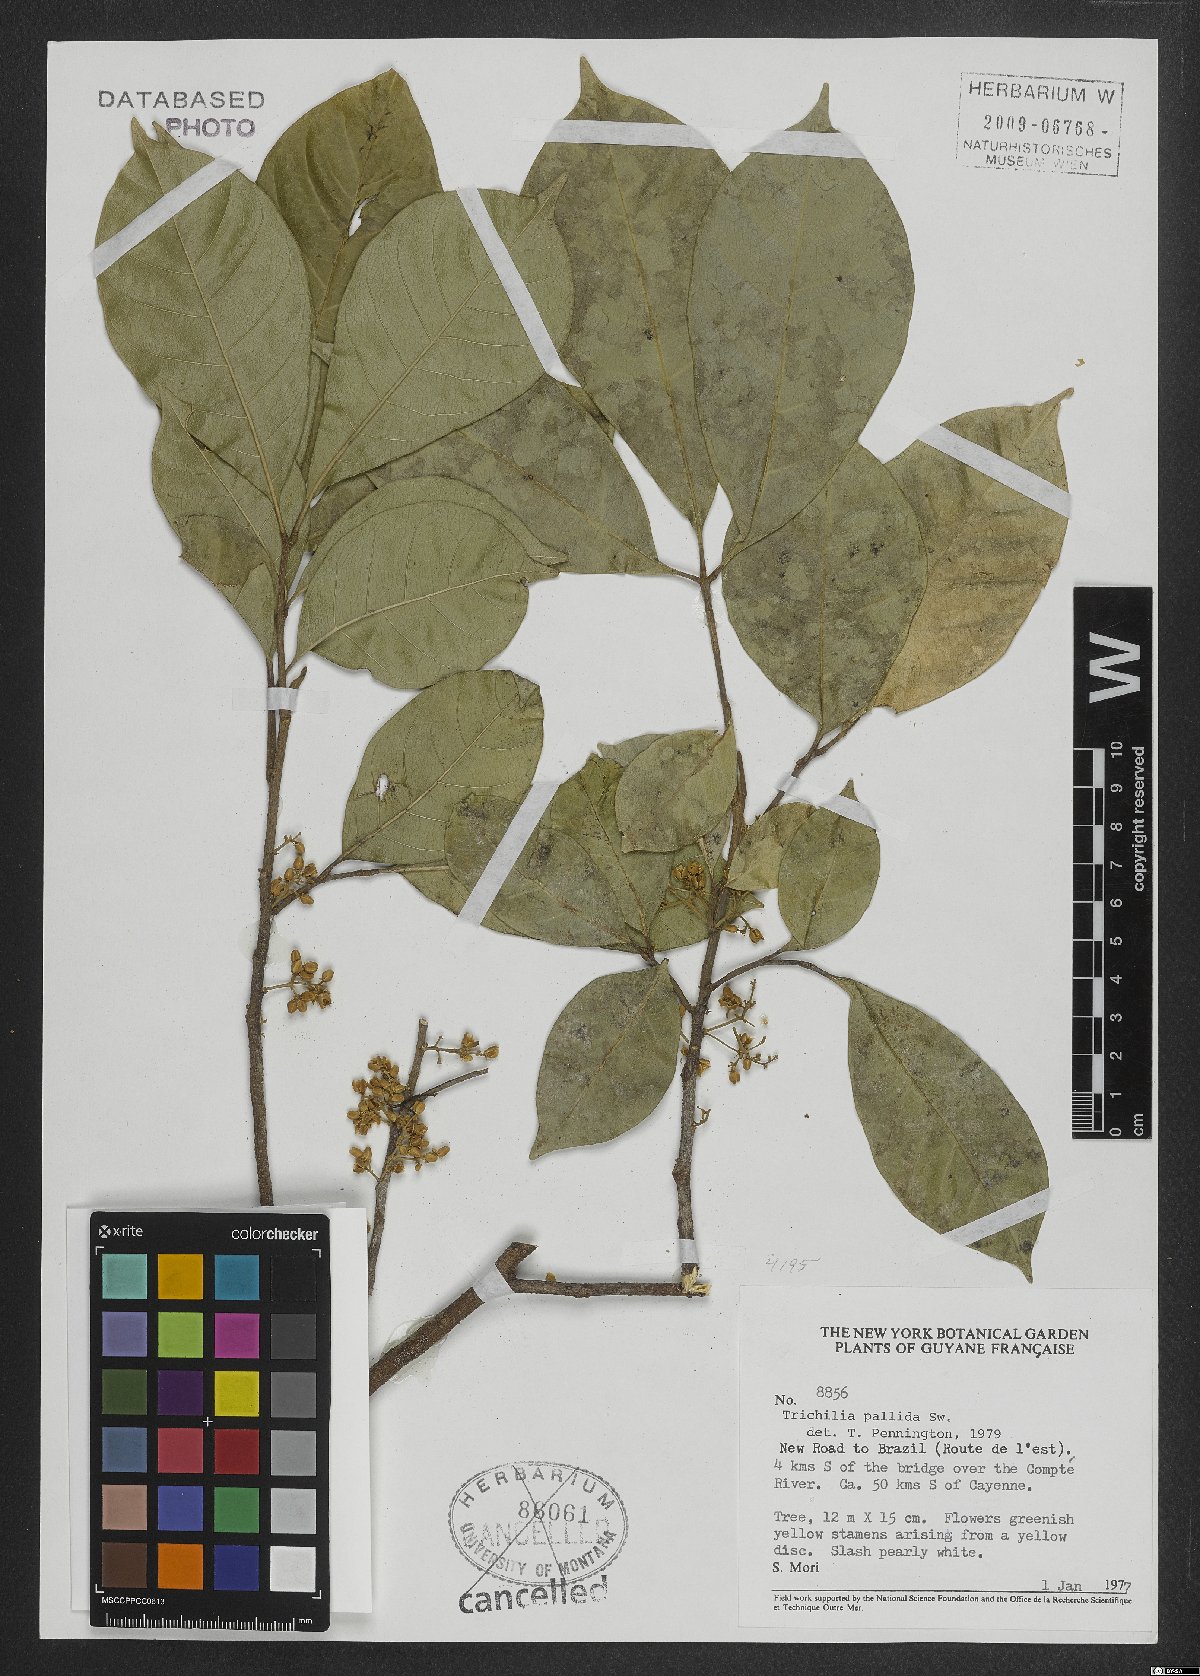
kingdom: Plantae
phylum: Tracheophyta
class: Magnoliopsida
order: Sapindales
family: Meliaceae
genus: Trichilia
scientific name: Trichilia pallida
